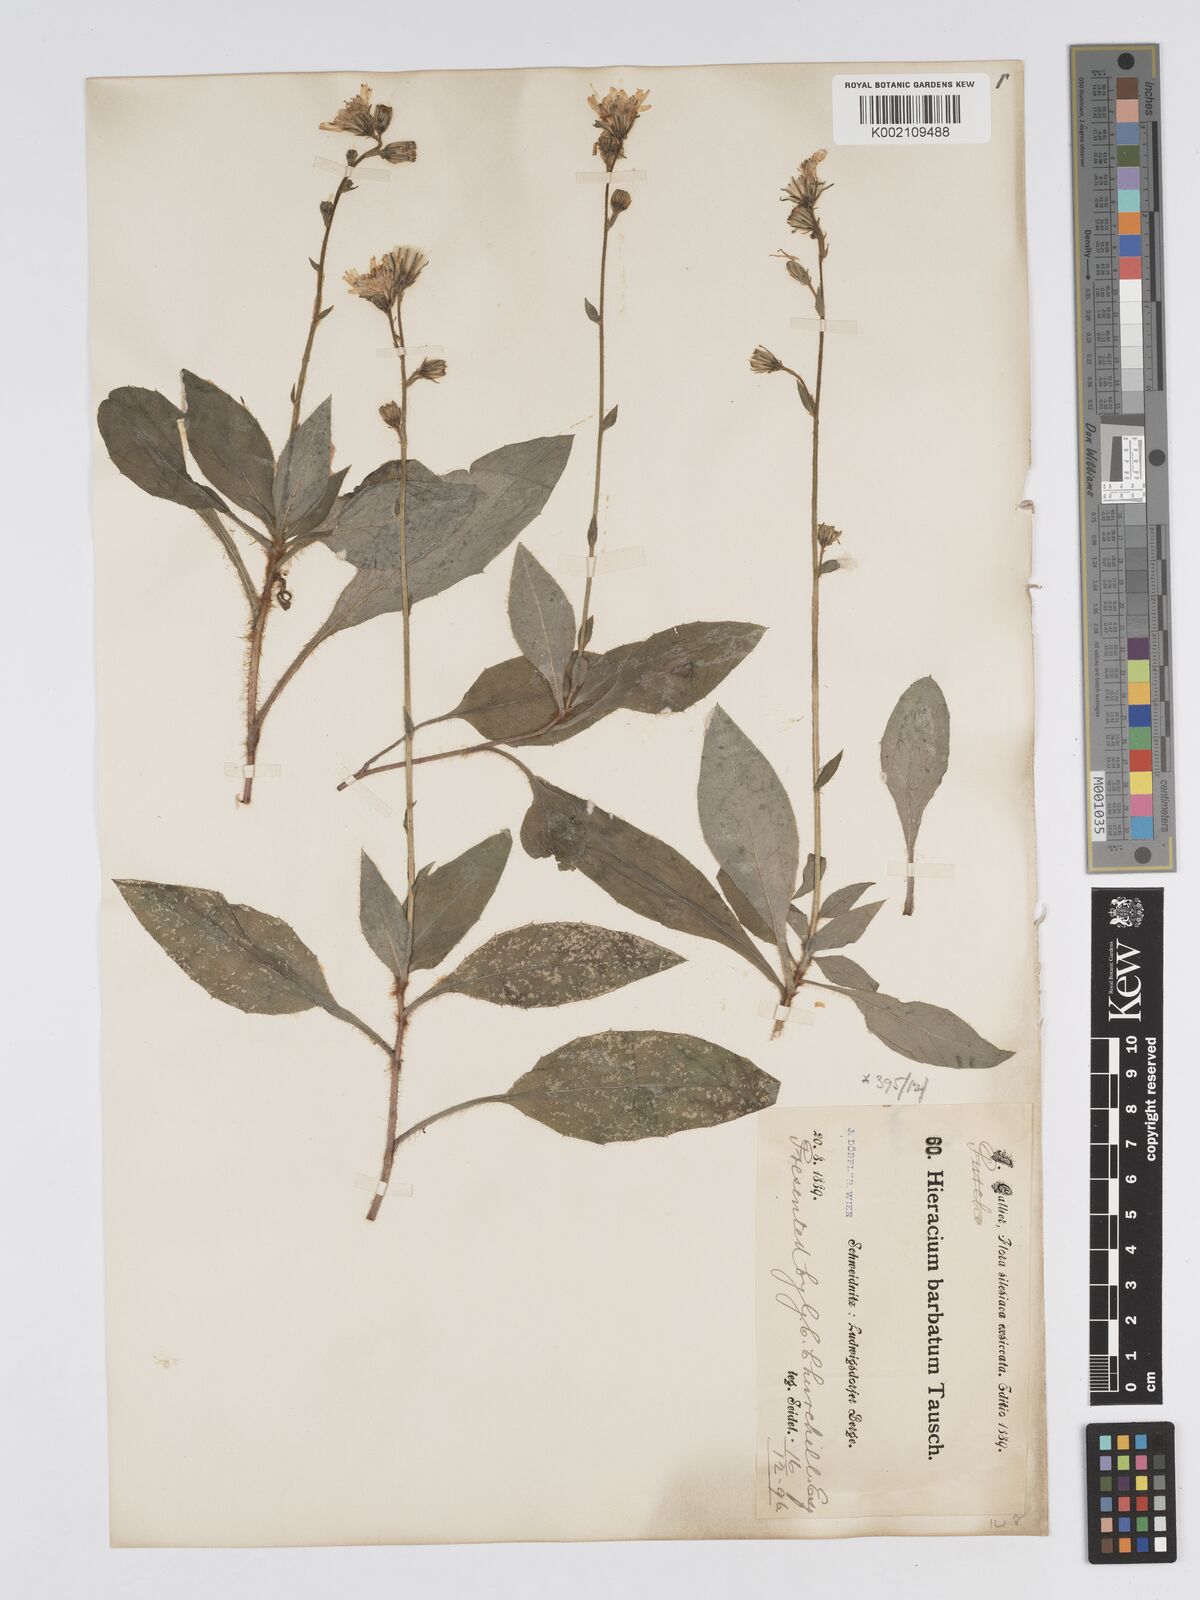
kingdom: Plantae
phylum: Tracheophyta
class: Magnoliopsida
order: Asterales
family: Asteraceae
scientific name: Asteraceae
